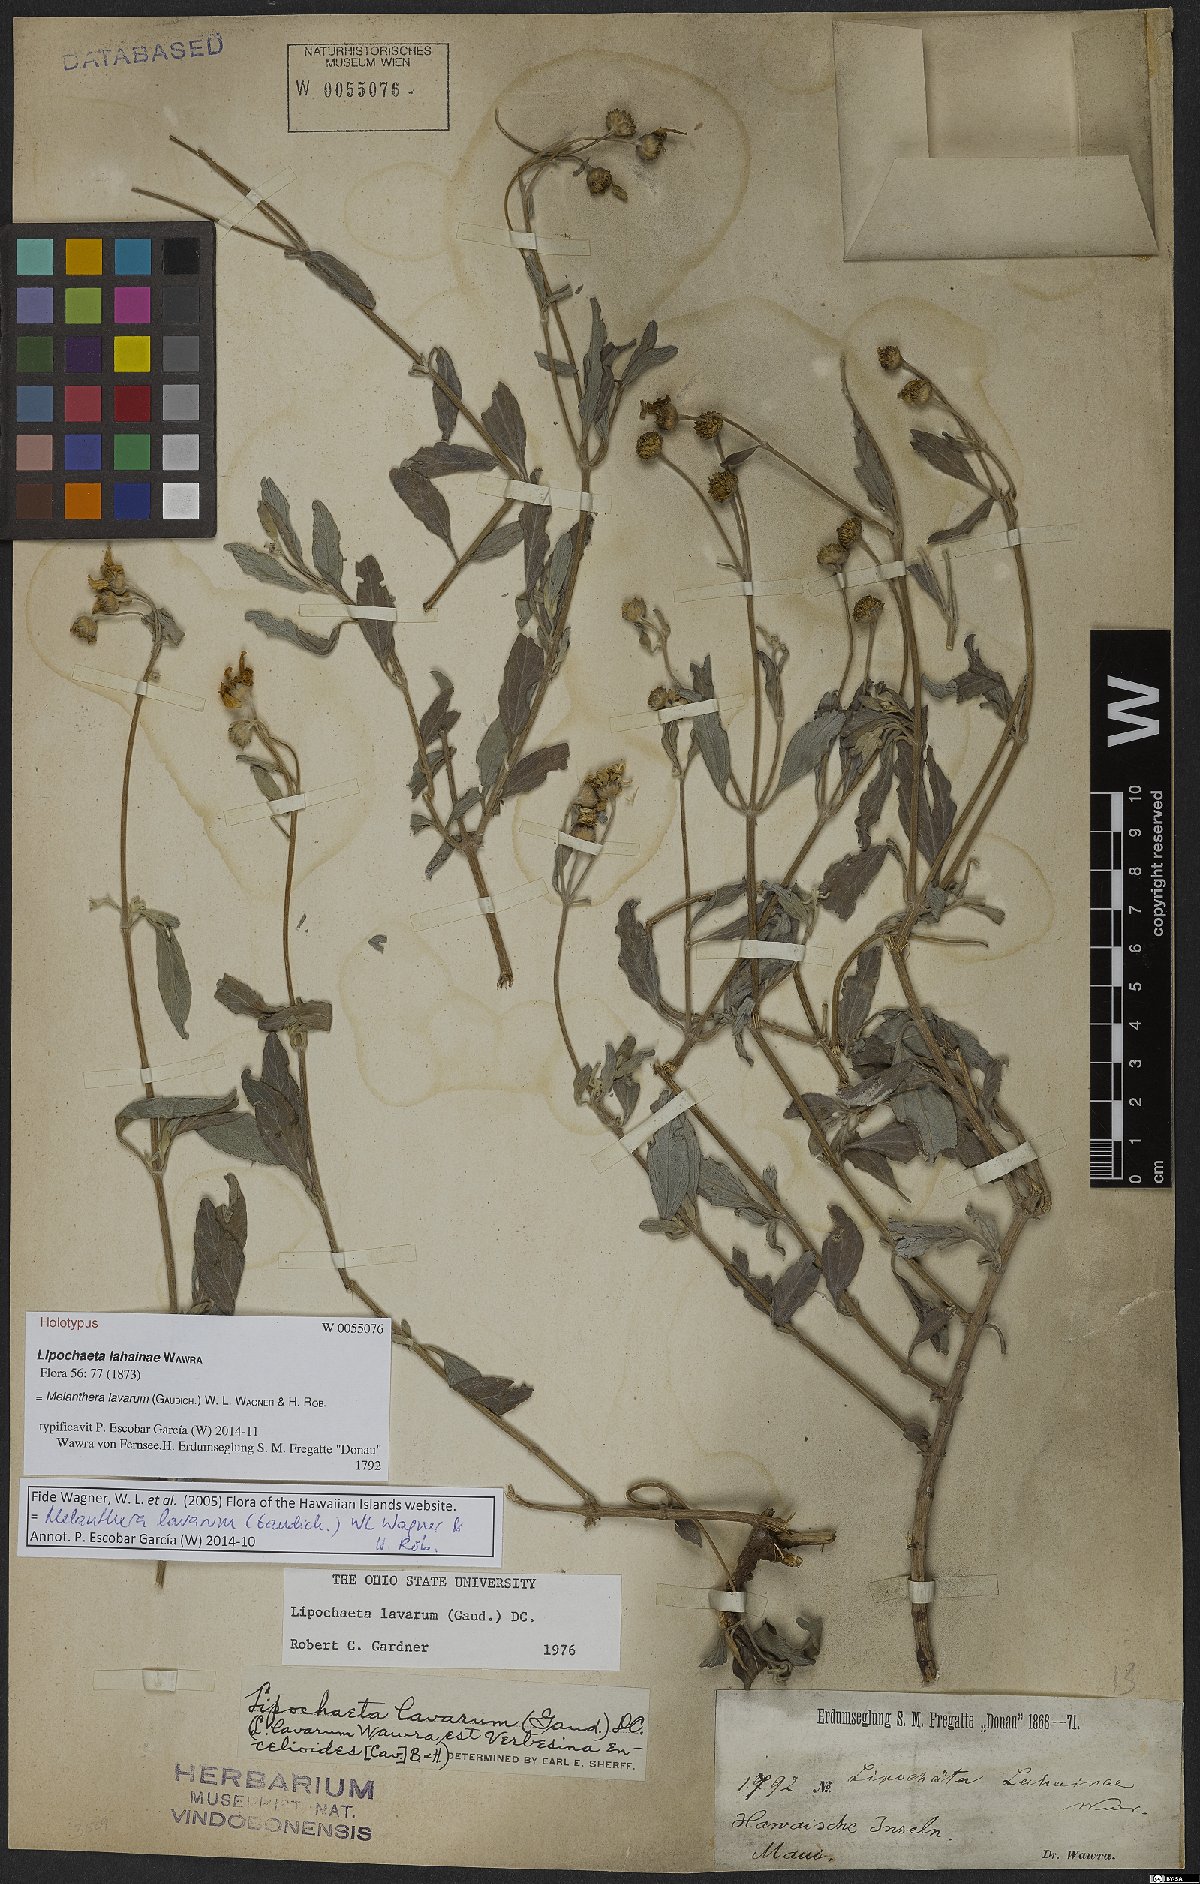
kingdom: Plantae
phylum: Tracheophyta
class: Magnoliopsida
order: Asterales
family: Asteraceae
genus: Lipochaeta
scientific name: Lipochaeta lavarum
